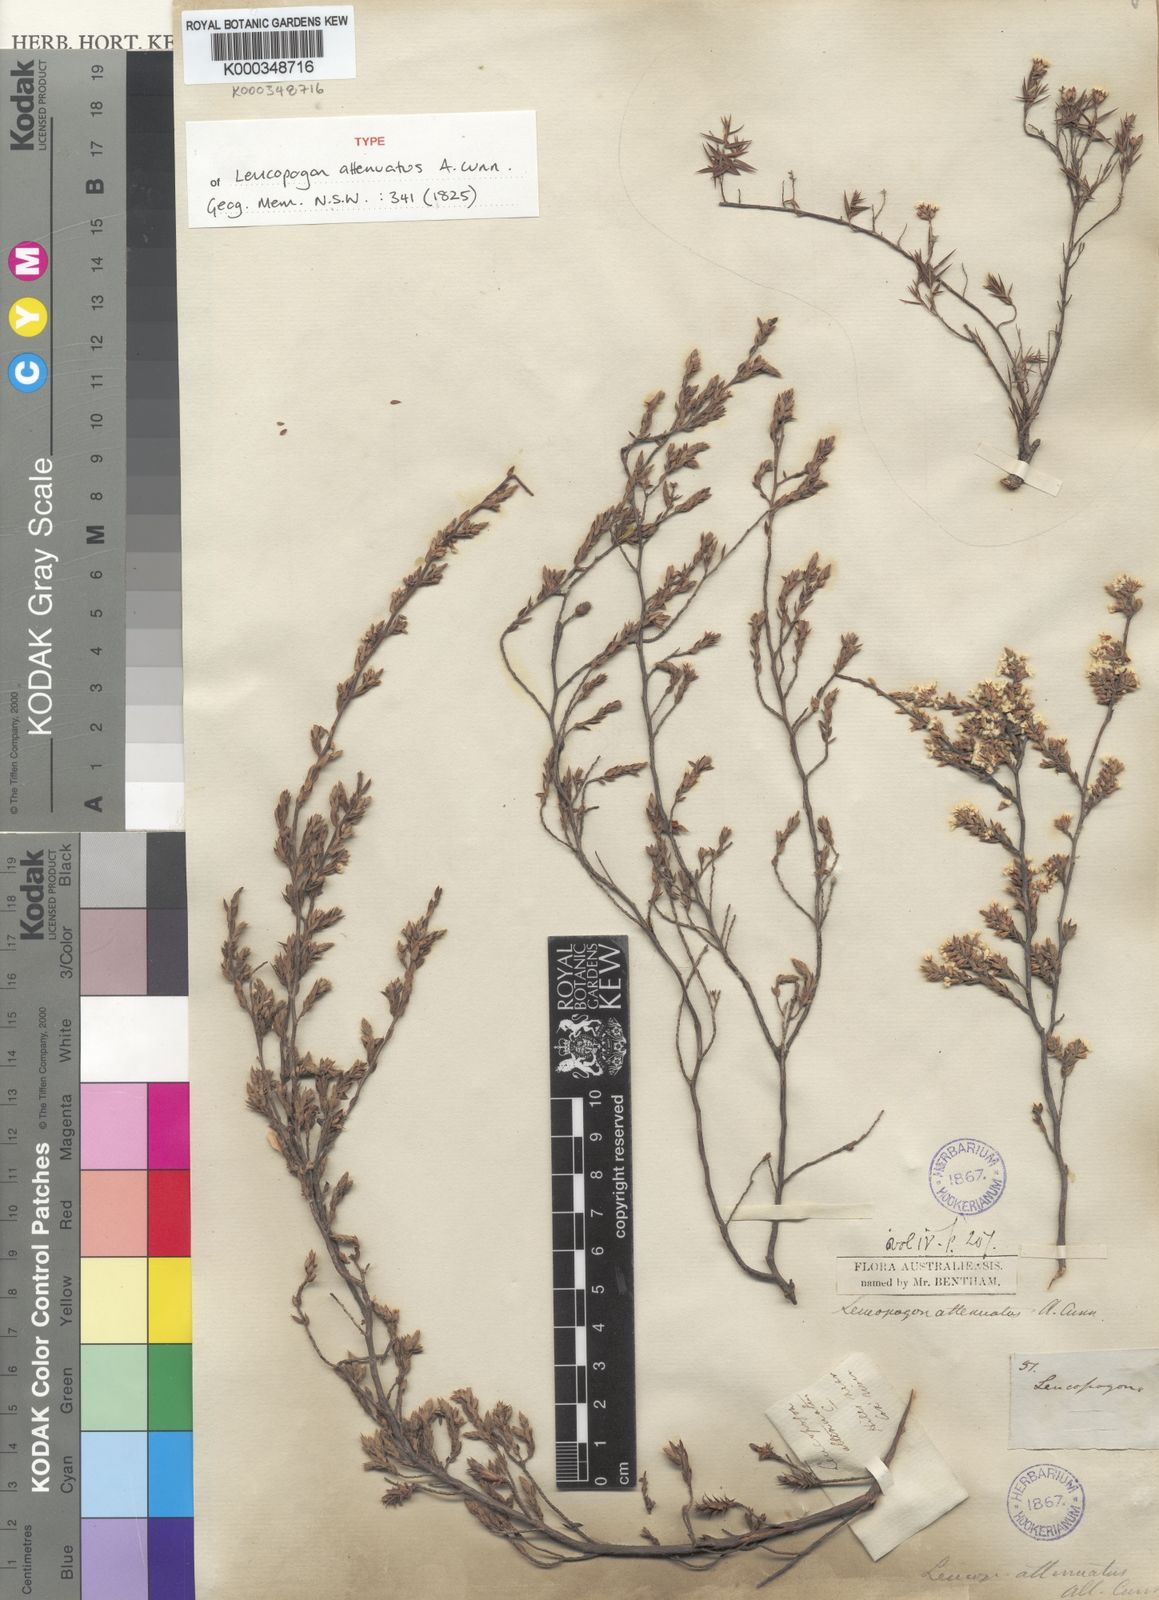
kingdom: Plantae
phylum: Tracheophyta
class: Magnoliopsida
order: Ericales
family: Ericaceae
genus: Styphelia
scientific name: Styphelia attenuata
